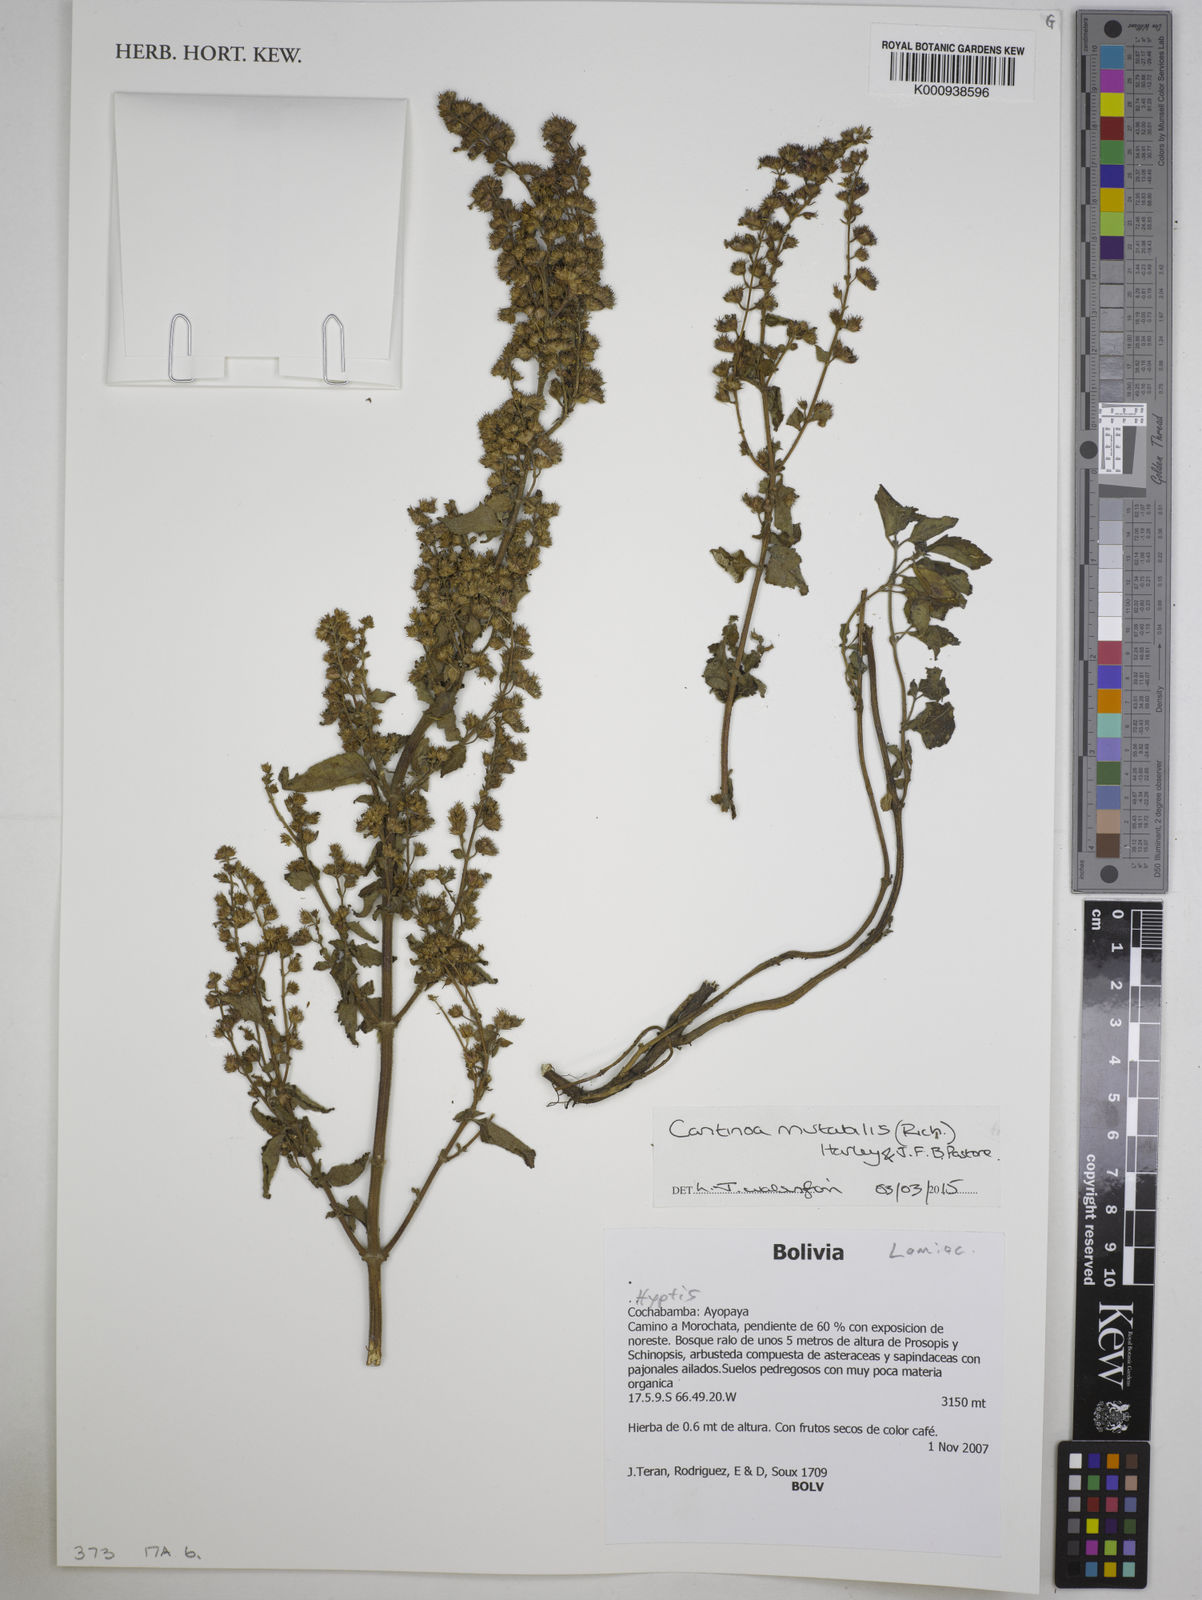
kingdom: Plantae
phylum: Tracheophyta
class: Magnoliopsida
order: Lamiales
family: Lamiaceae
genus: Cantinoa
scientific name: Cantinoa mutabilis
